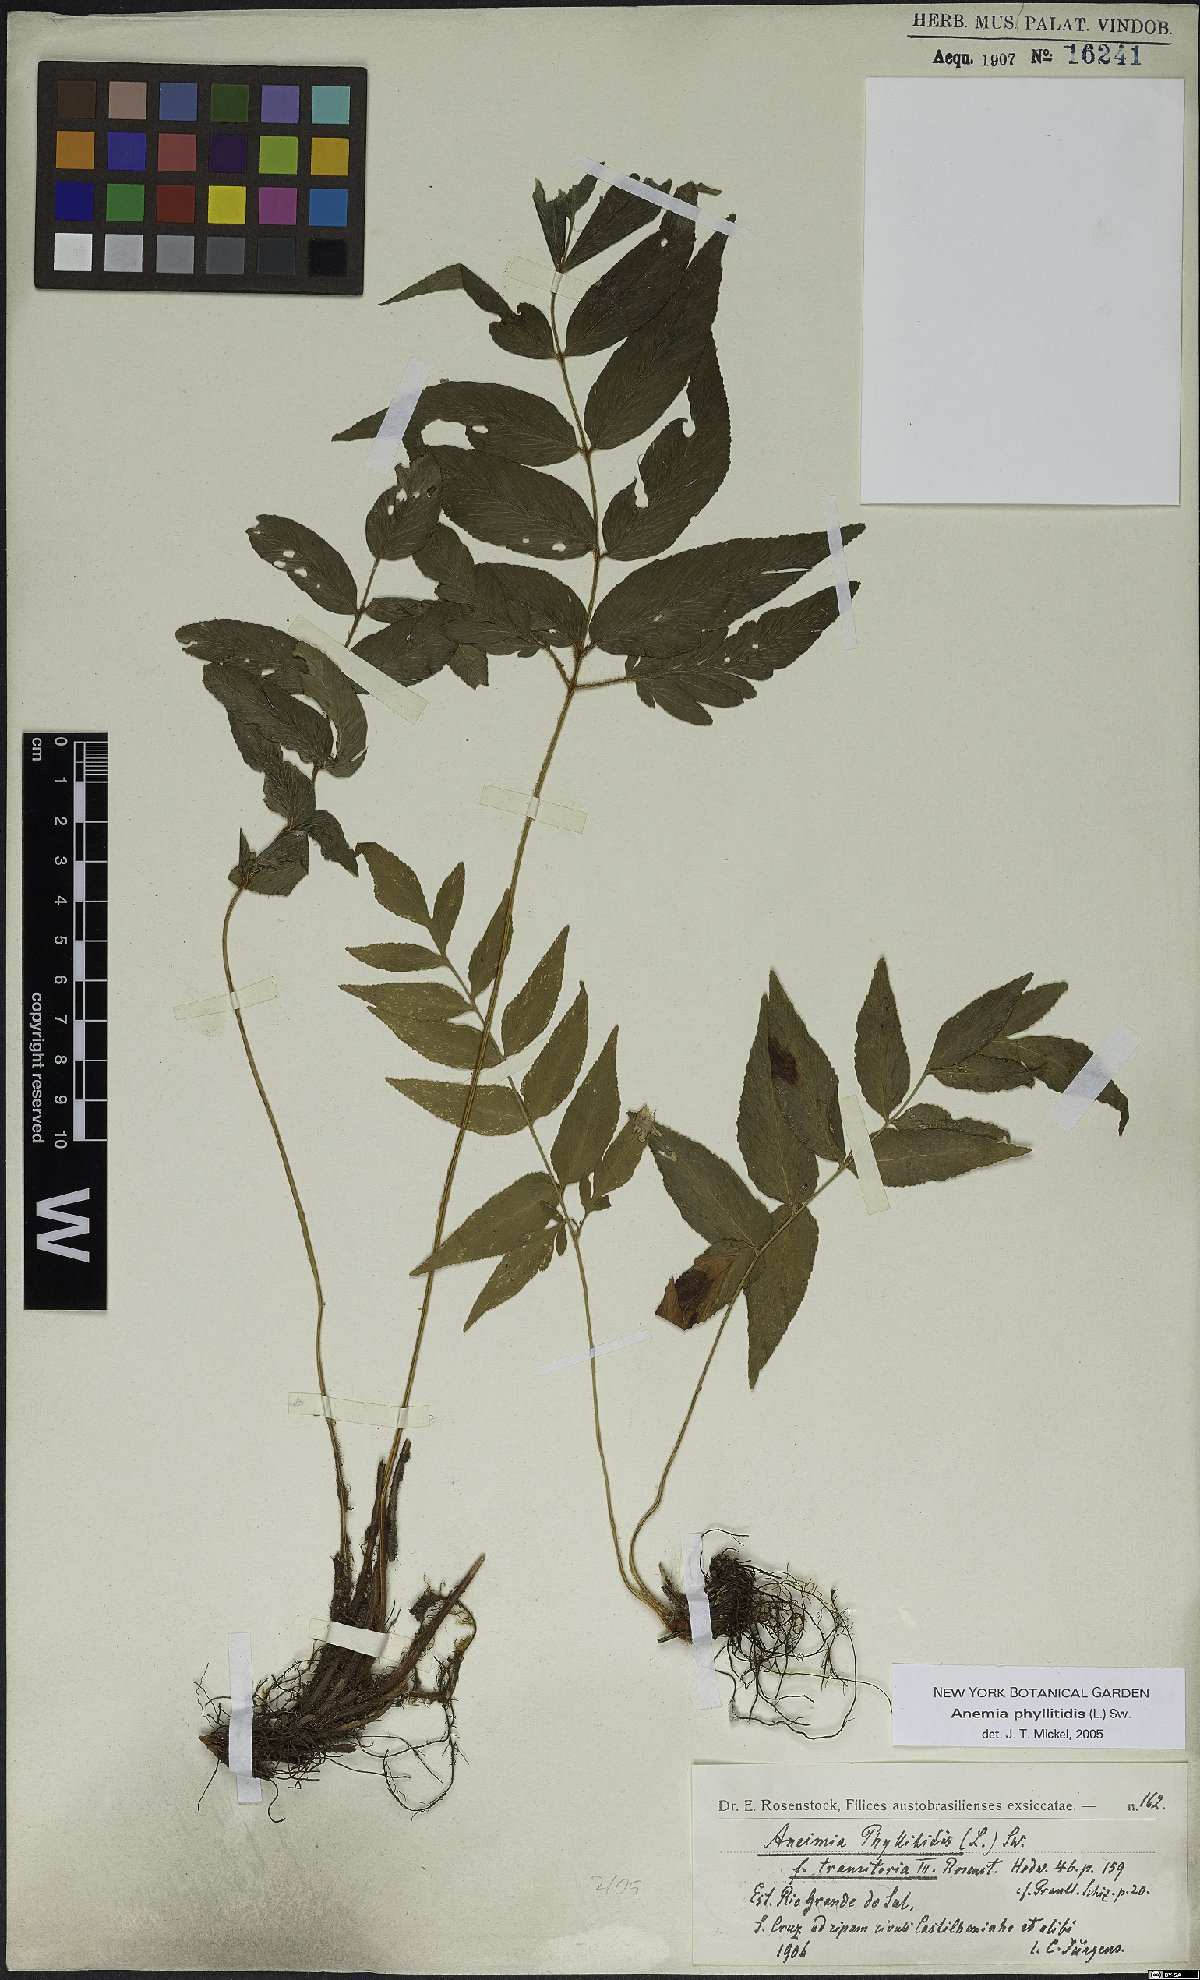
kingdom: Plantae
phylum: Tracheophyta
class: Polypodiopsida
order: Schizaeales
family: Anemiaceae
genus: Anemia
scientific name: Anemia phyllitidis
